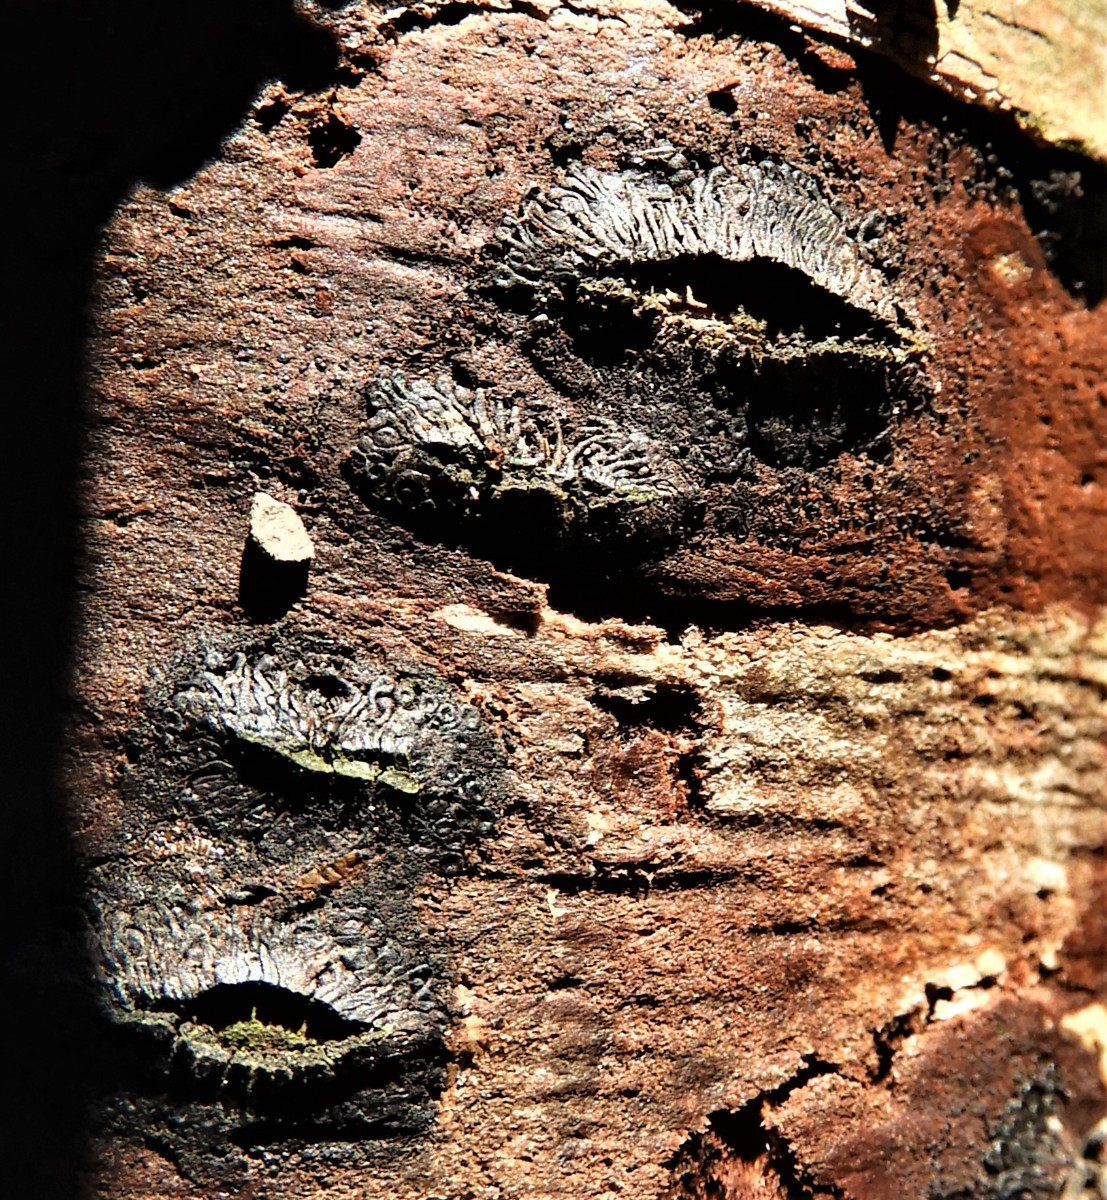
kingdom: Fungi
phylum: Ascomycota
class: Sordariomycetes
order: Calosphaeriales
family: Calosphaeriaceae
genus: Calosphaeria
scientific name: Calosphaeria pulchella
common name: smuk slyngkerne
